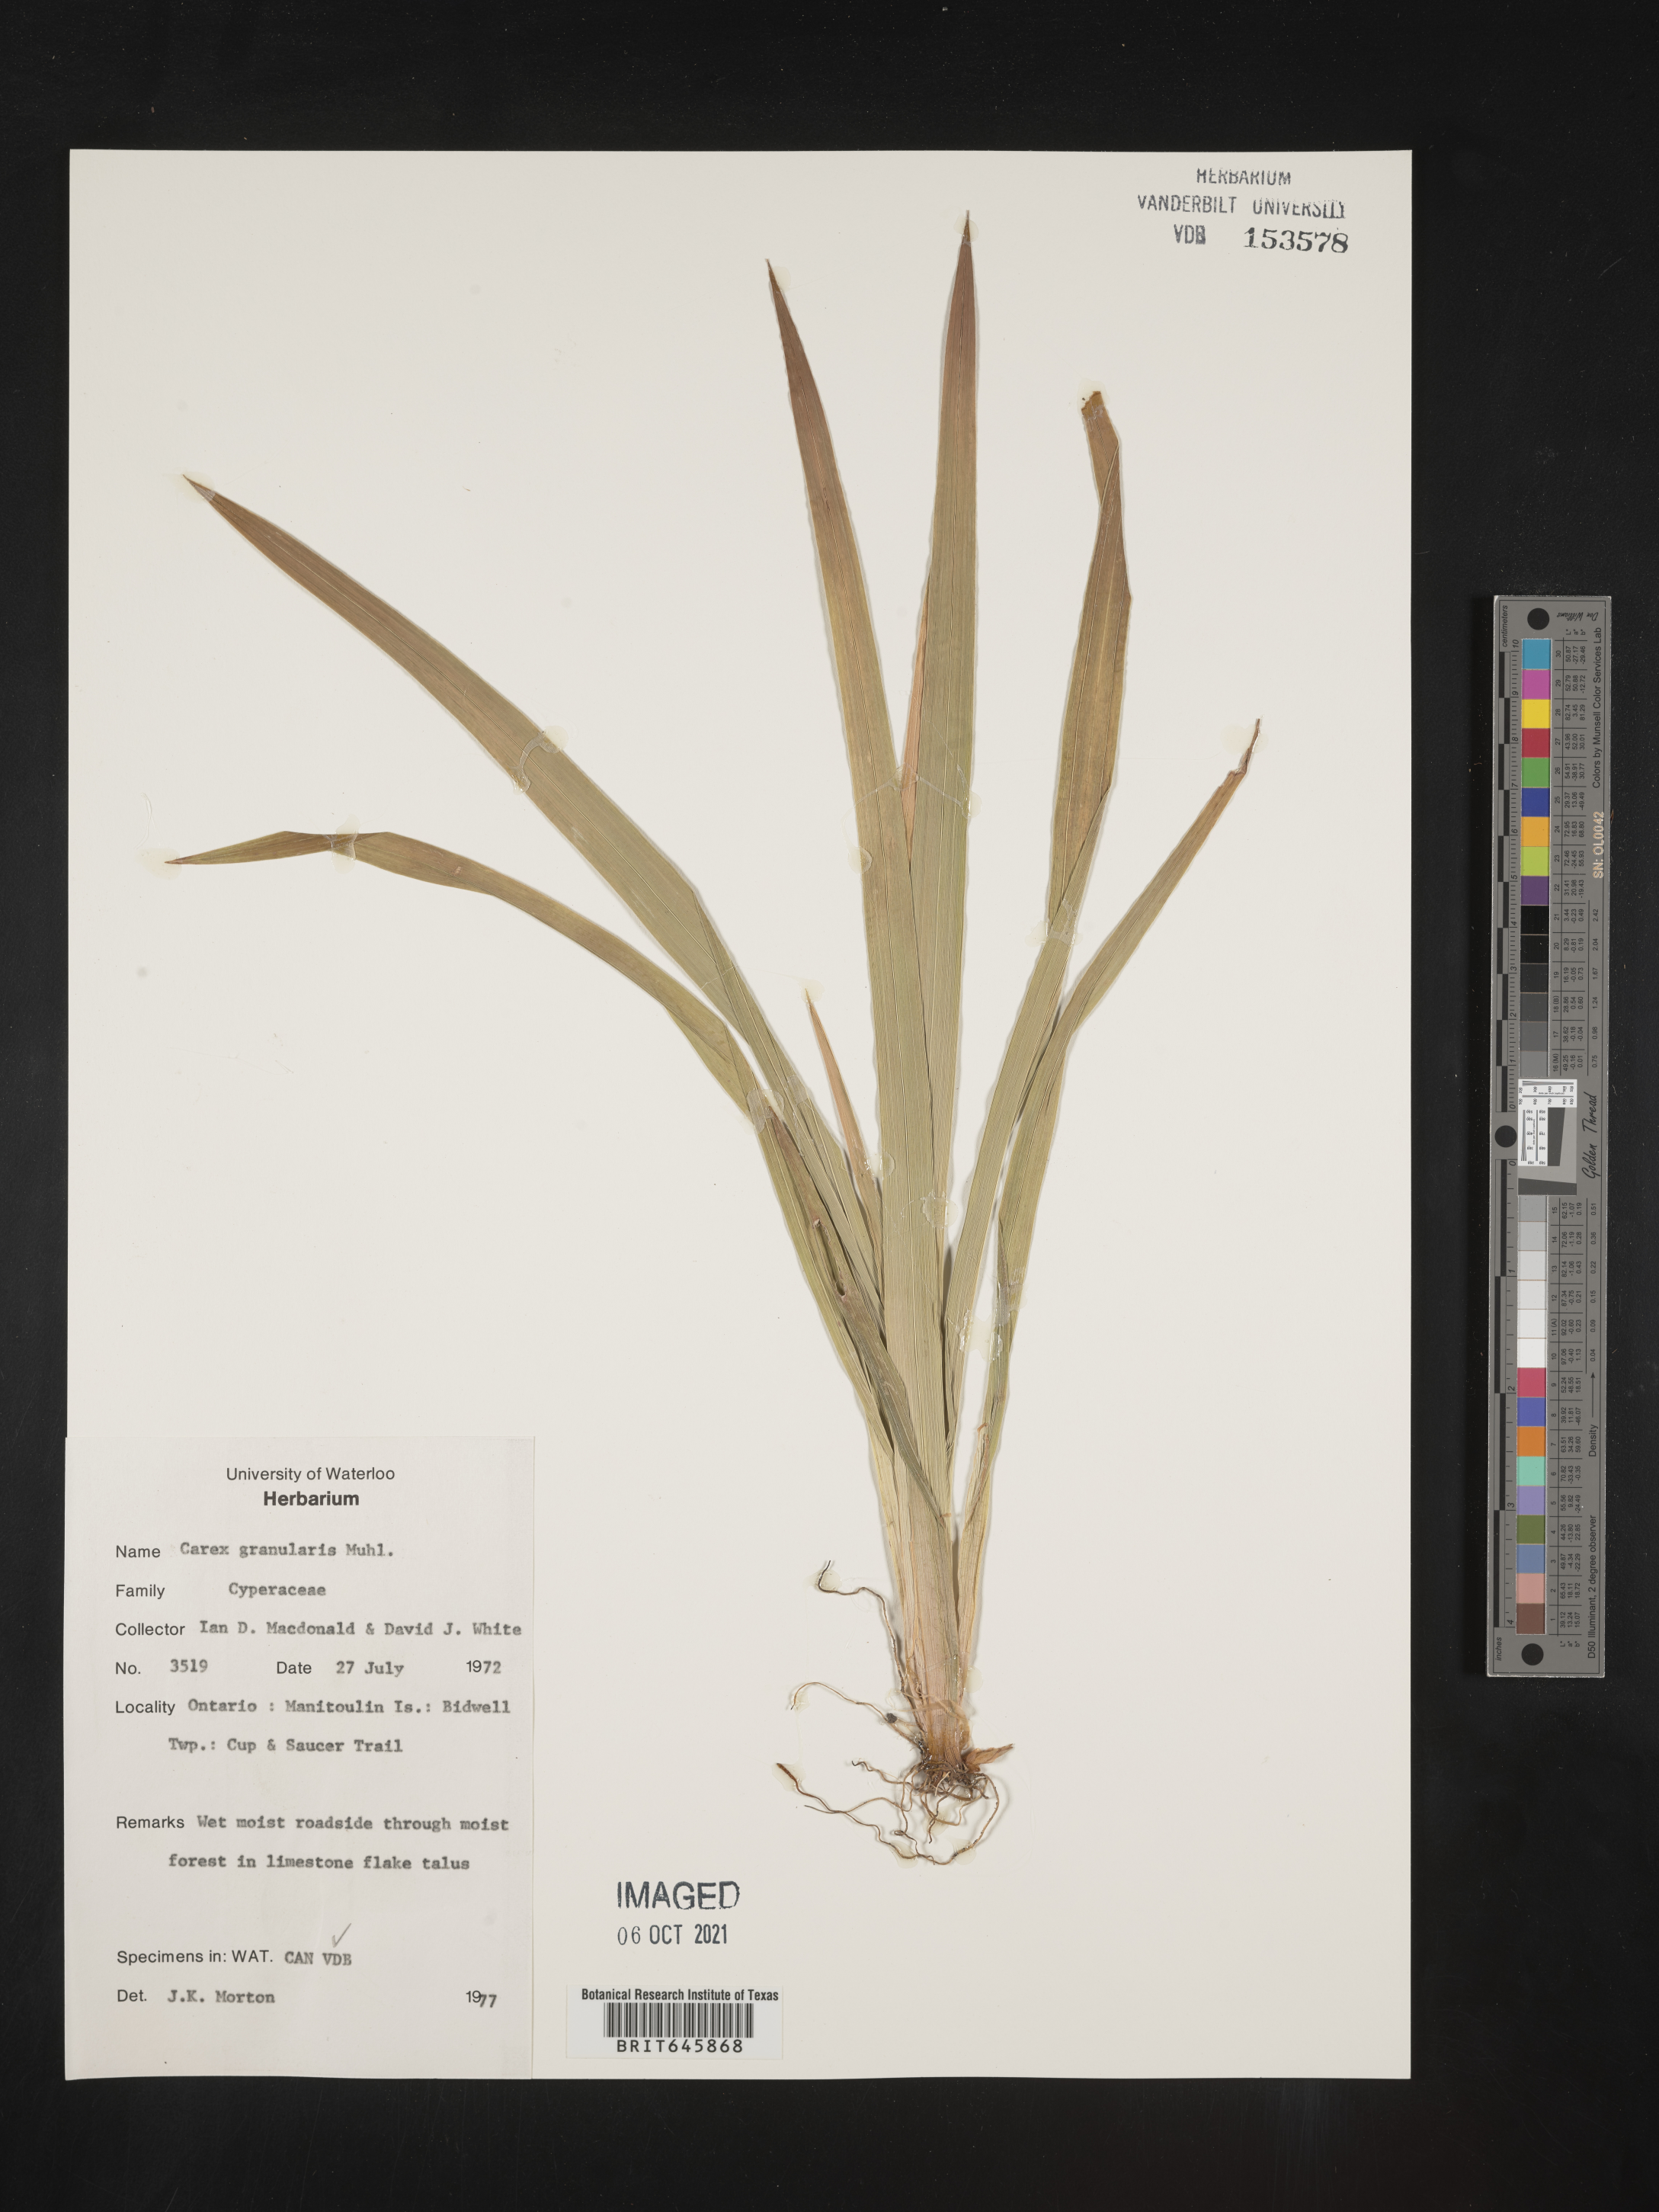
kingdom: Plantae
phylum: Tracheophyta
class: Liliopsida
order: Poales
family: Cyperaceae
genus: Carex
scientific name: Carex granularis
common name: Granular sedge
